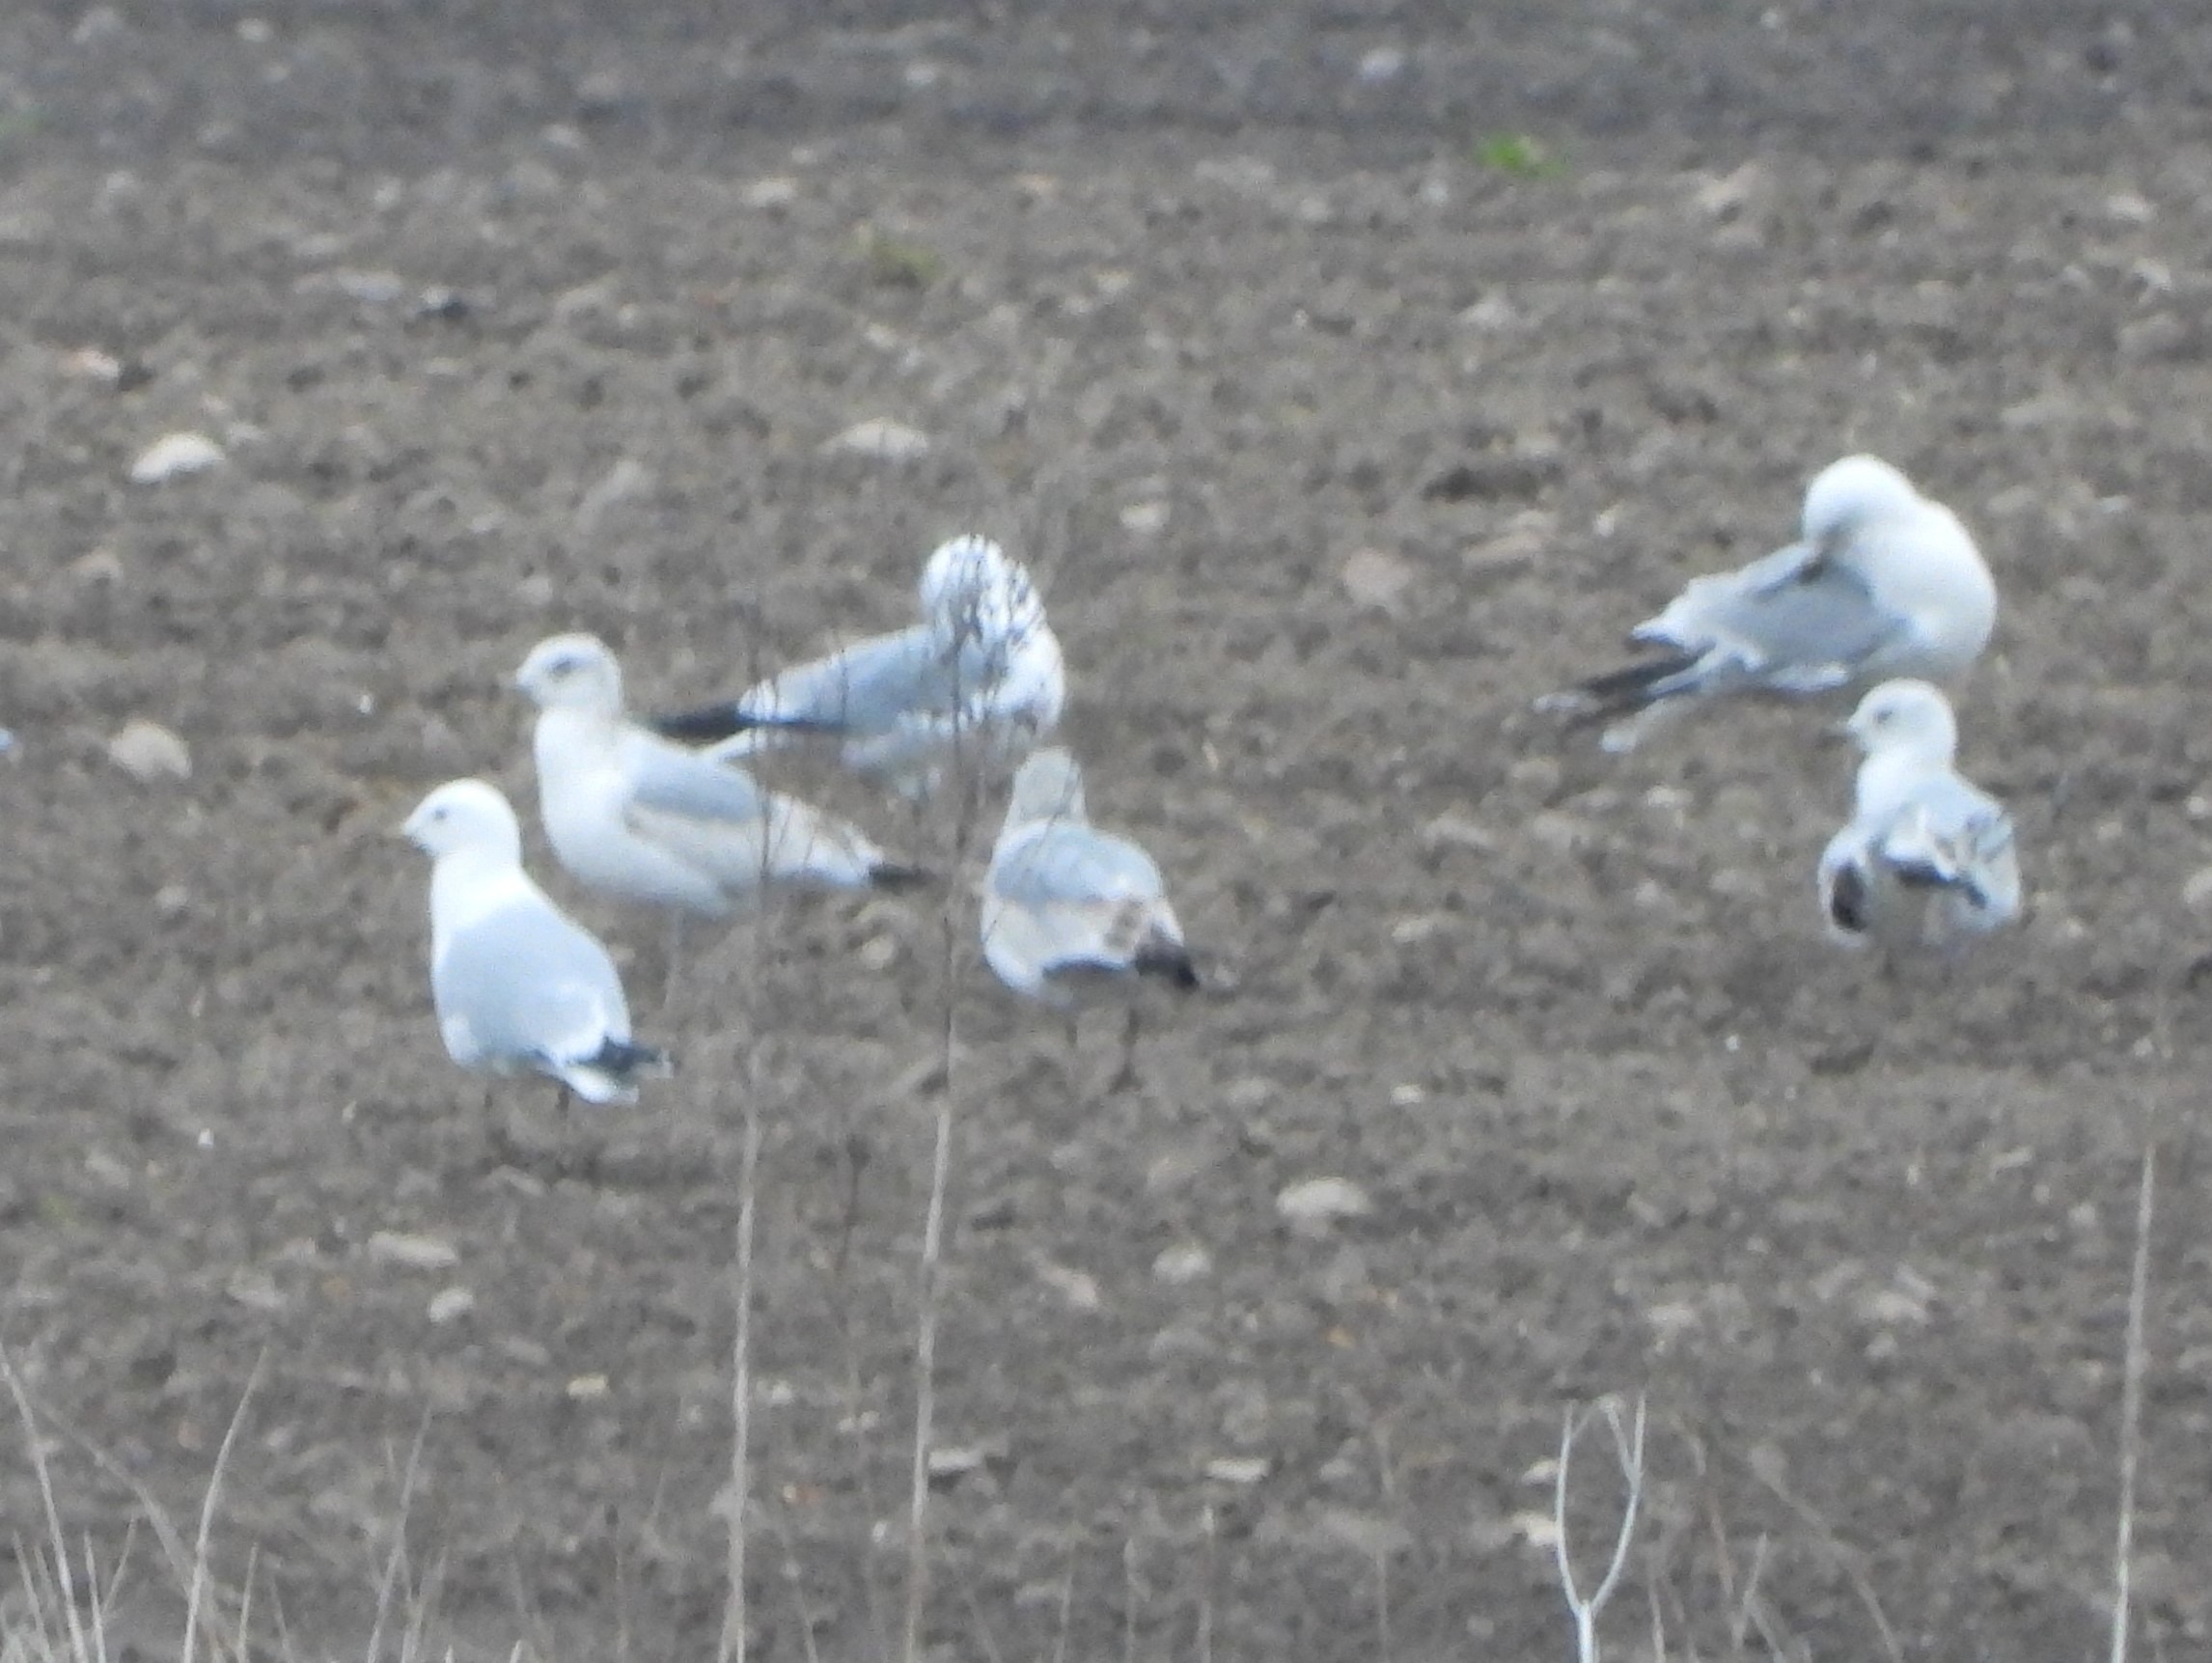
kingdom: Animalia
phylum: Chordata
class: Aves
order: Charadriiformes
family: Laridae
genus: Larus
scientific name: Larus canus
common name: Stormmåge
